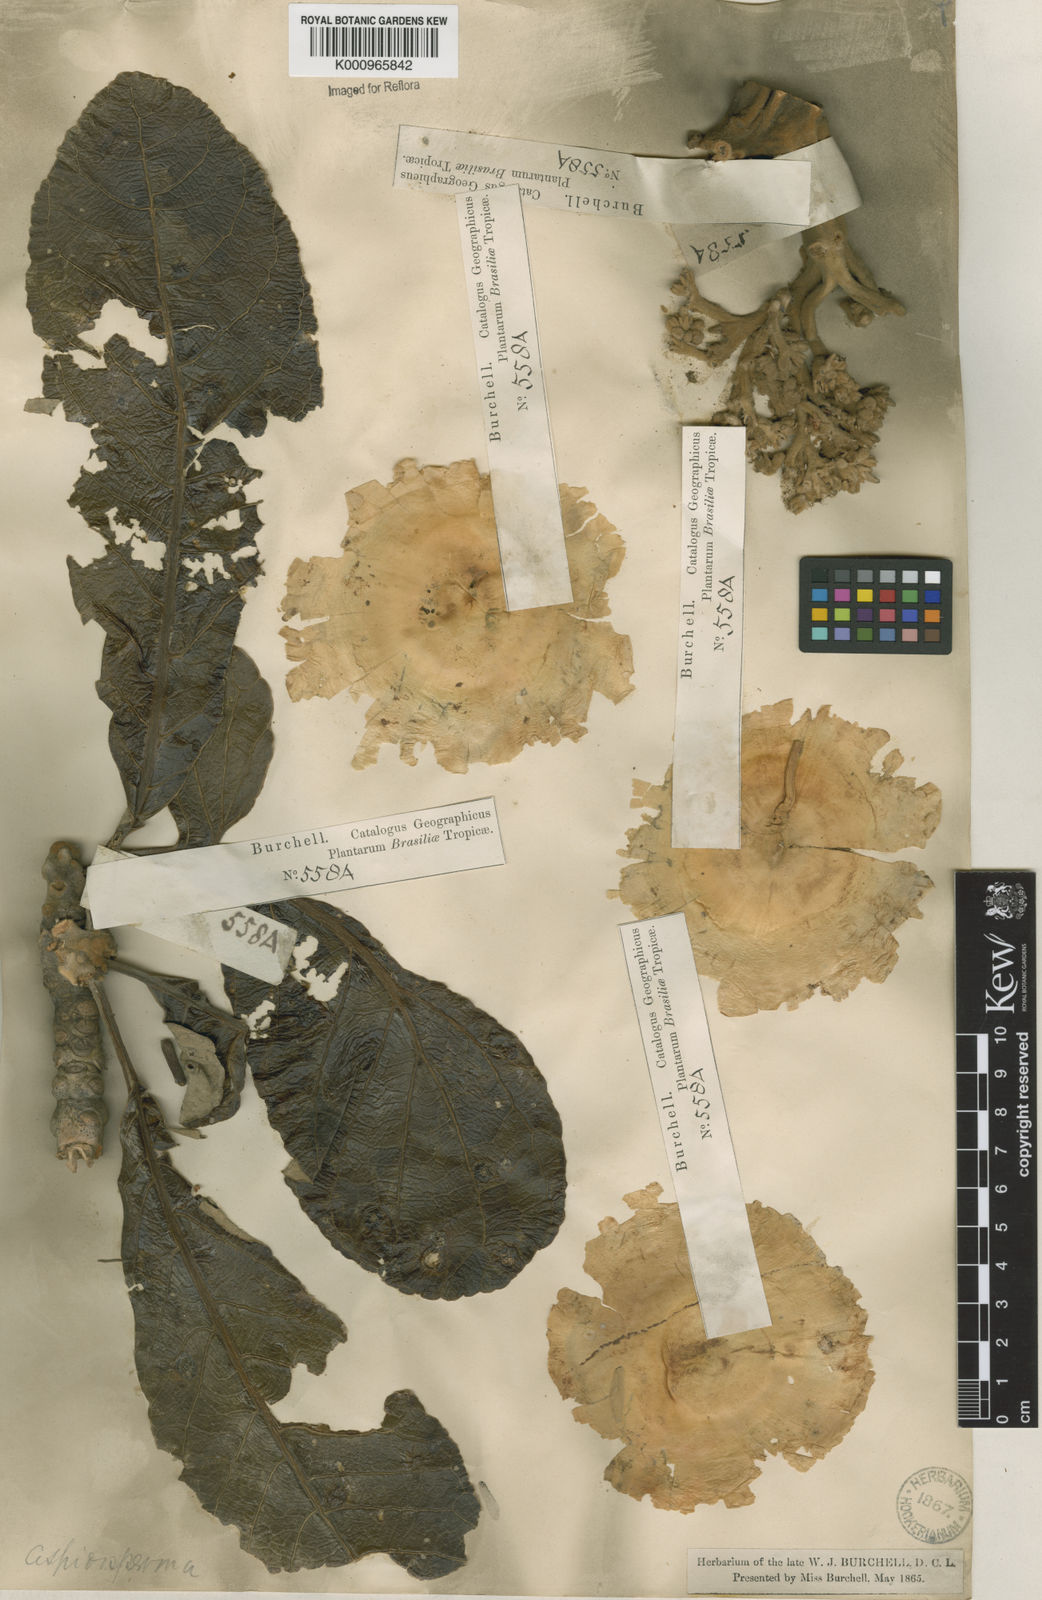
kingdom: Plantae
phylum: Tracheophyta
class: Magnoliopsida
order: Gentianales
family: Apocynaceae
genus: Aspidosperma
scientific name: Aspidosperma tomentosum
